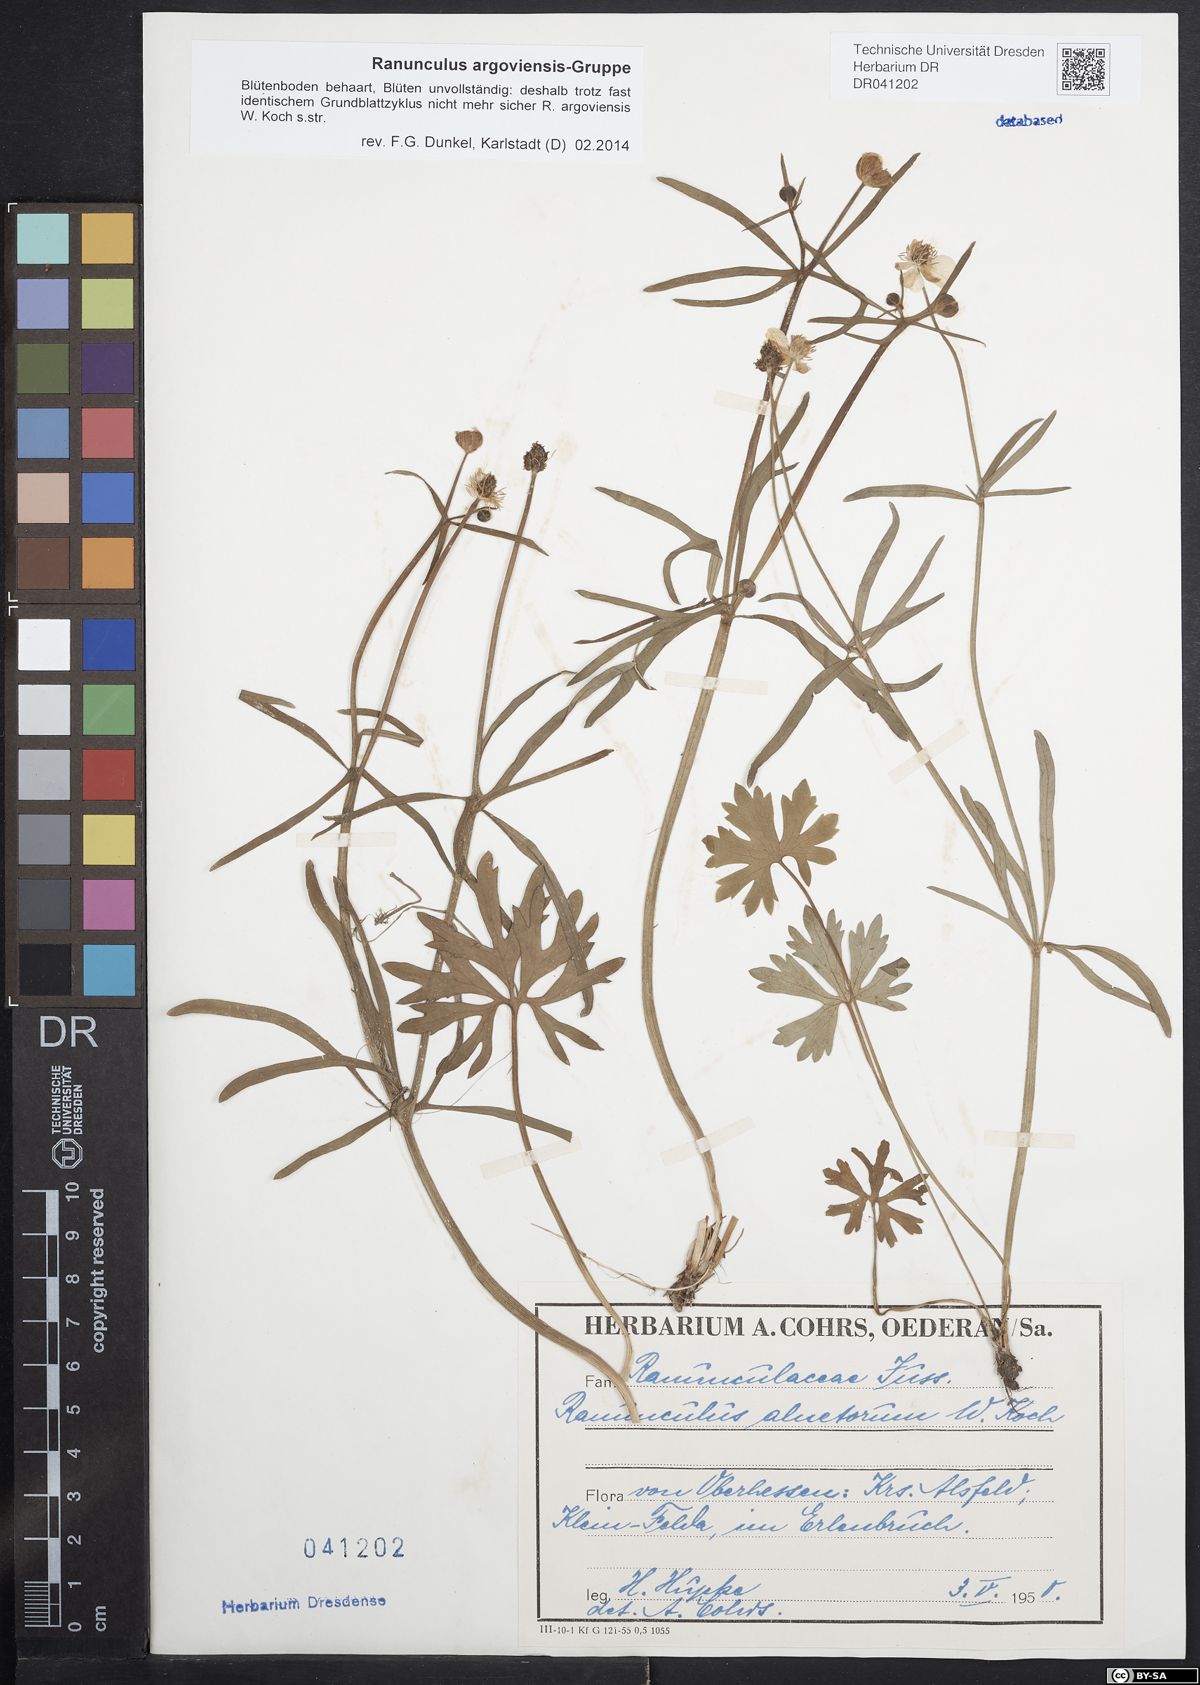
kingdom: Plantae
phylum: Tracheophyta
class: Magnoliopsida
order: Ranunculales
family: Ranunculaceae
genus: Ranunculus
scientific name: Ranunculus argoviensis
